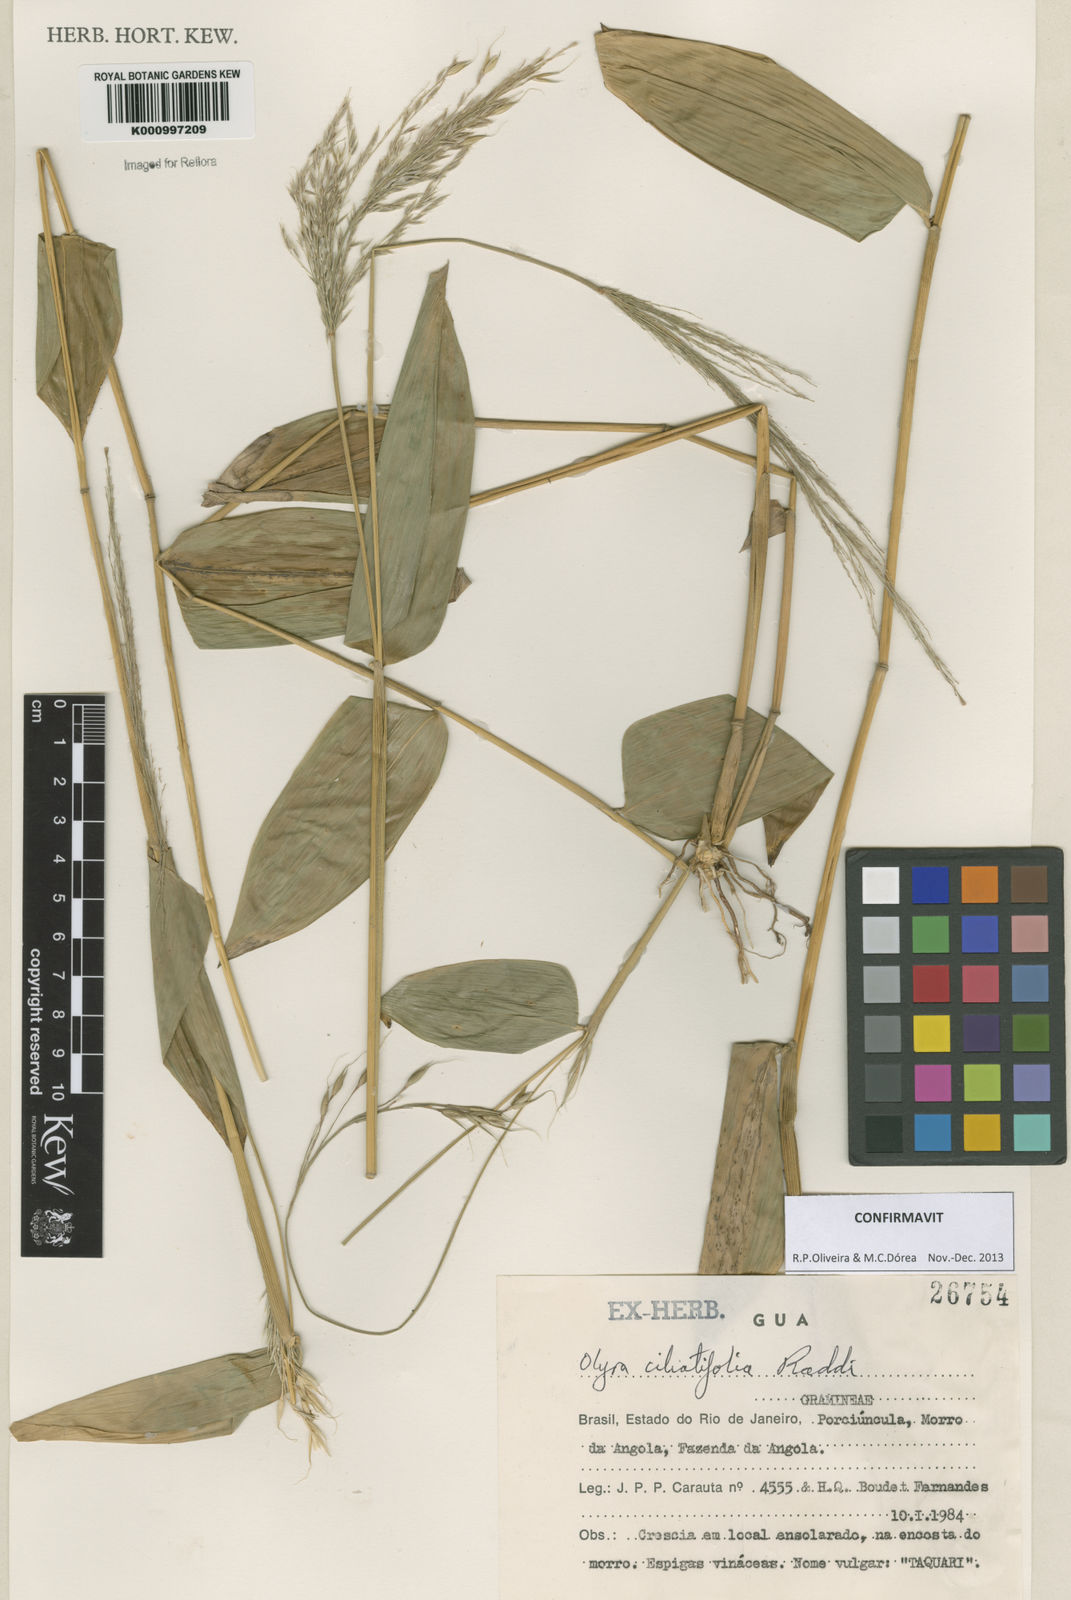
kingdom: Plantae
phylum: Tracheophyta
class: Liliopsida
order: Poales
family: Poaceae
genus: Olyra
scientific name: Olyra ciliatifolia
